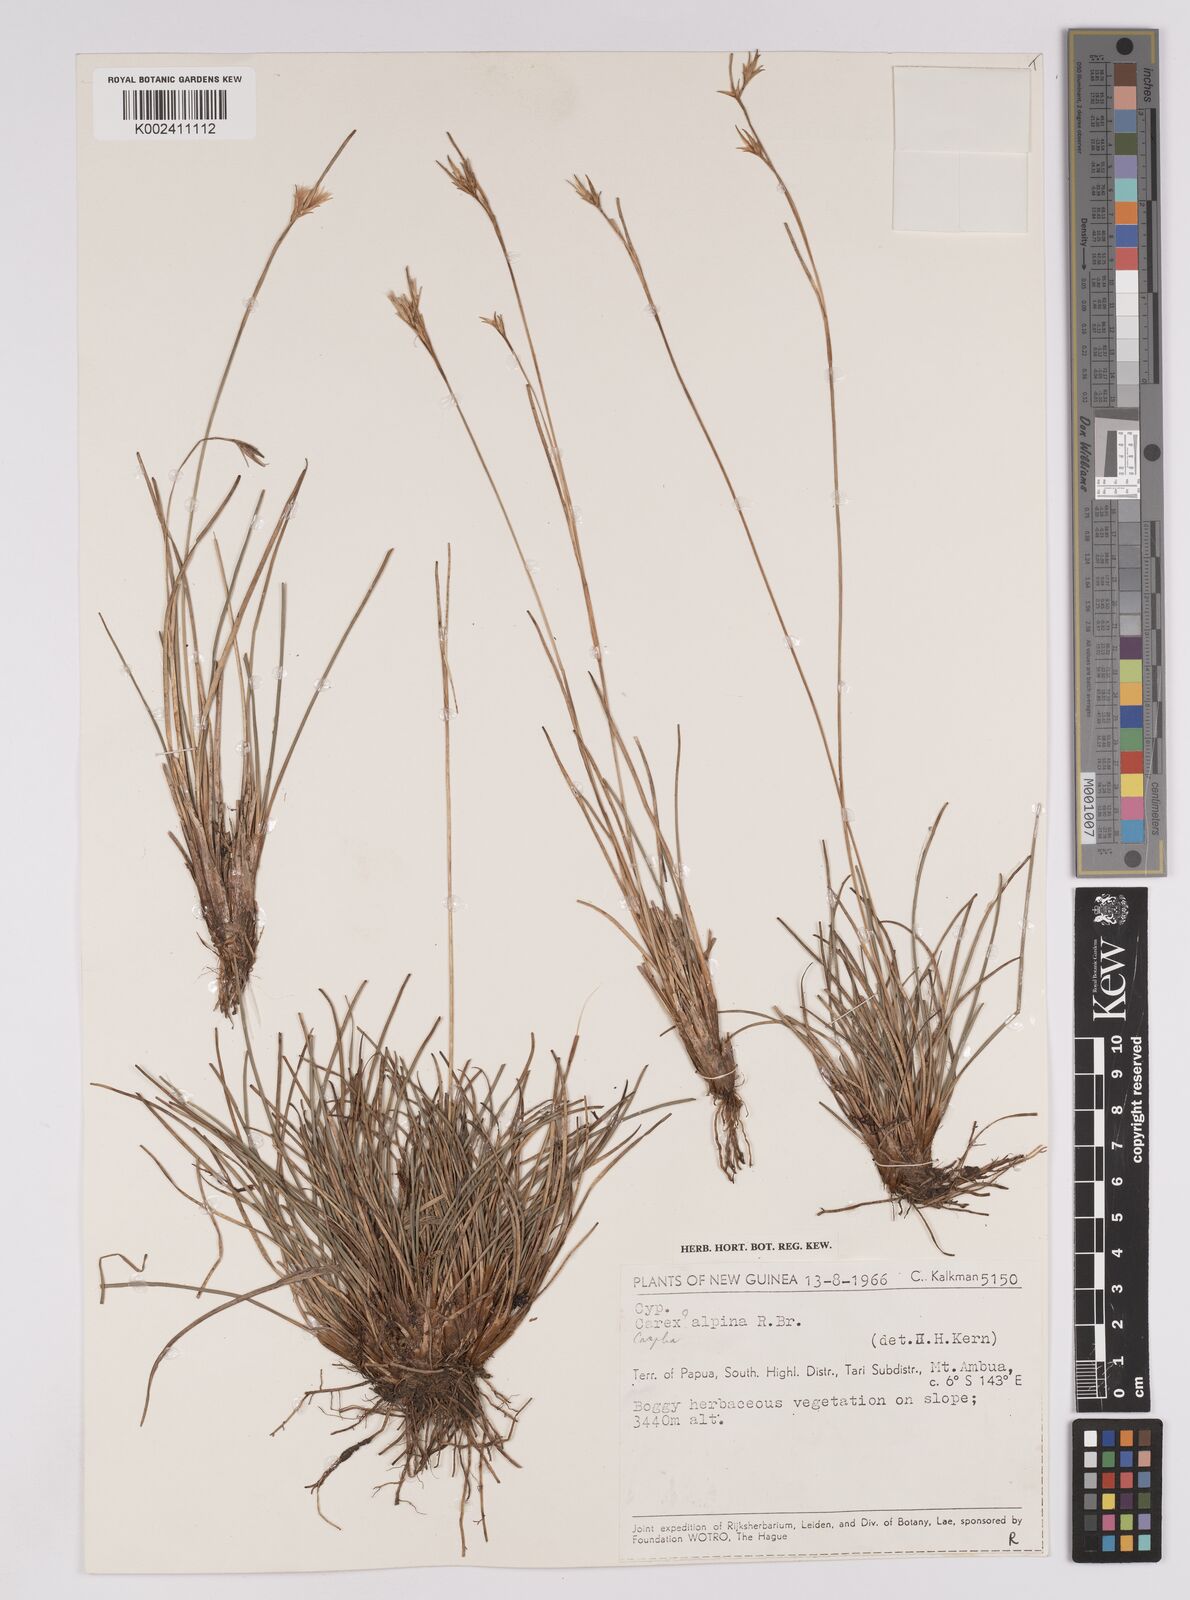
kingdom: Plantae
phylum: Tracheophyta
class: Liliopsida
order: Poales
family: Cyperaceae
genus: Carpha
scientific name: Carpha alpina
